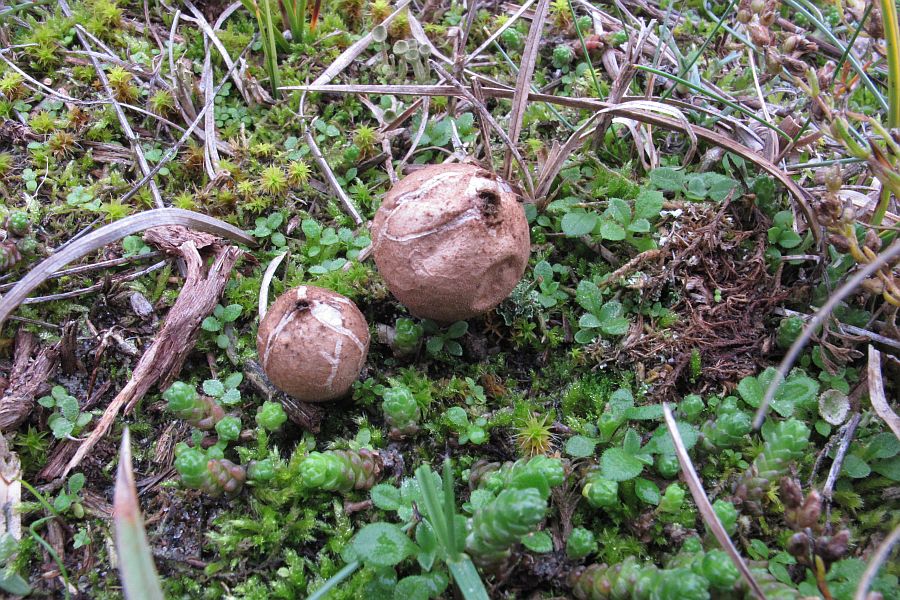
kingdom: Fungi
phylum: Basidiomycota
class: Agaricomycetes
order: Agaricales
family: Lycoperdaceae
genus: Lycoperdon
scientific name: Lycoperdon lividum
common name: mark-støvbold
